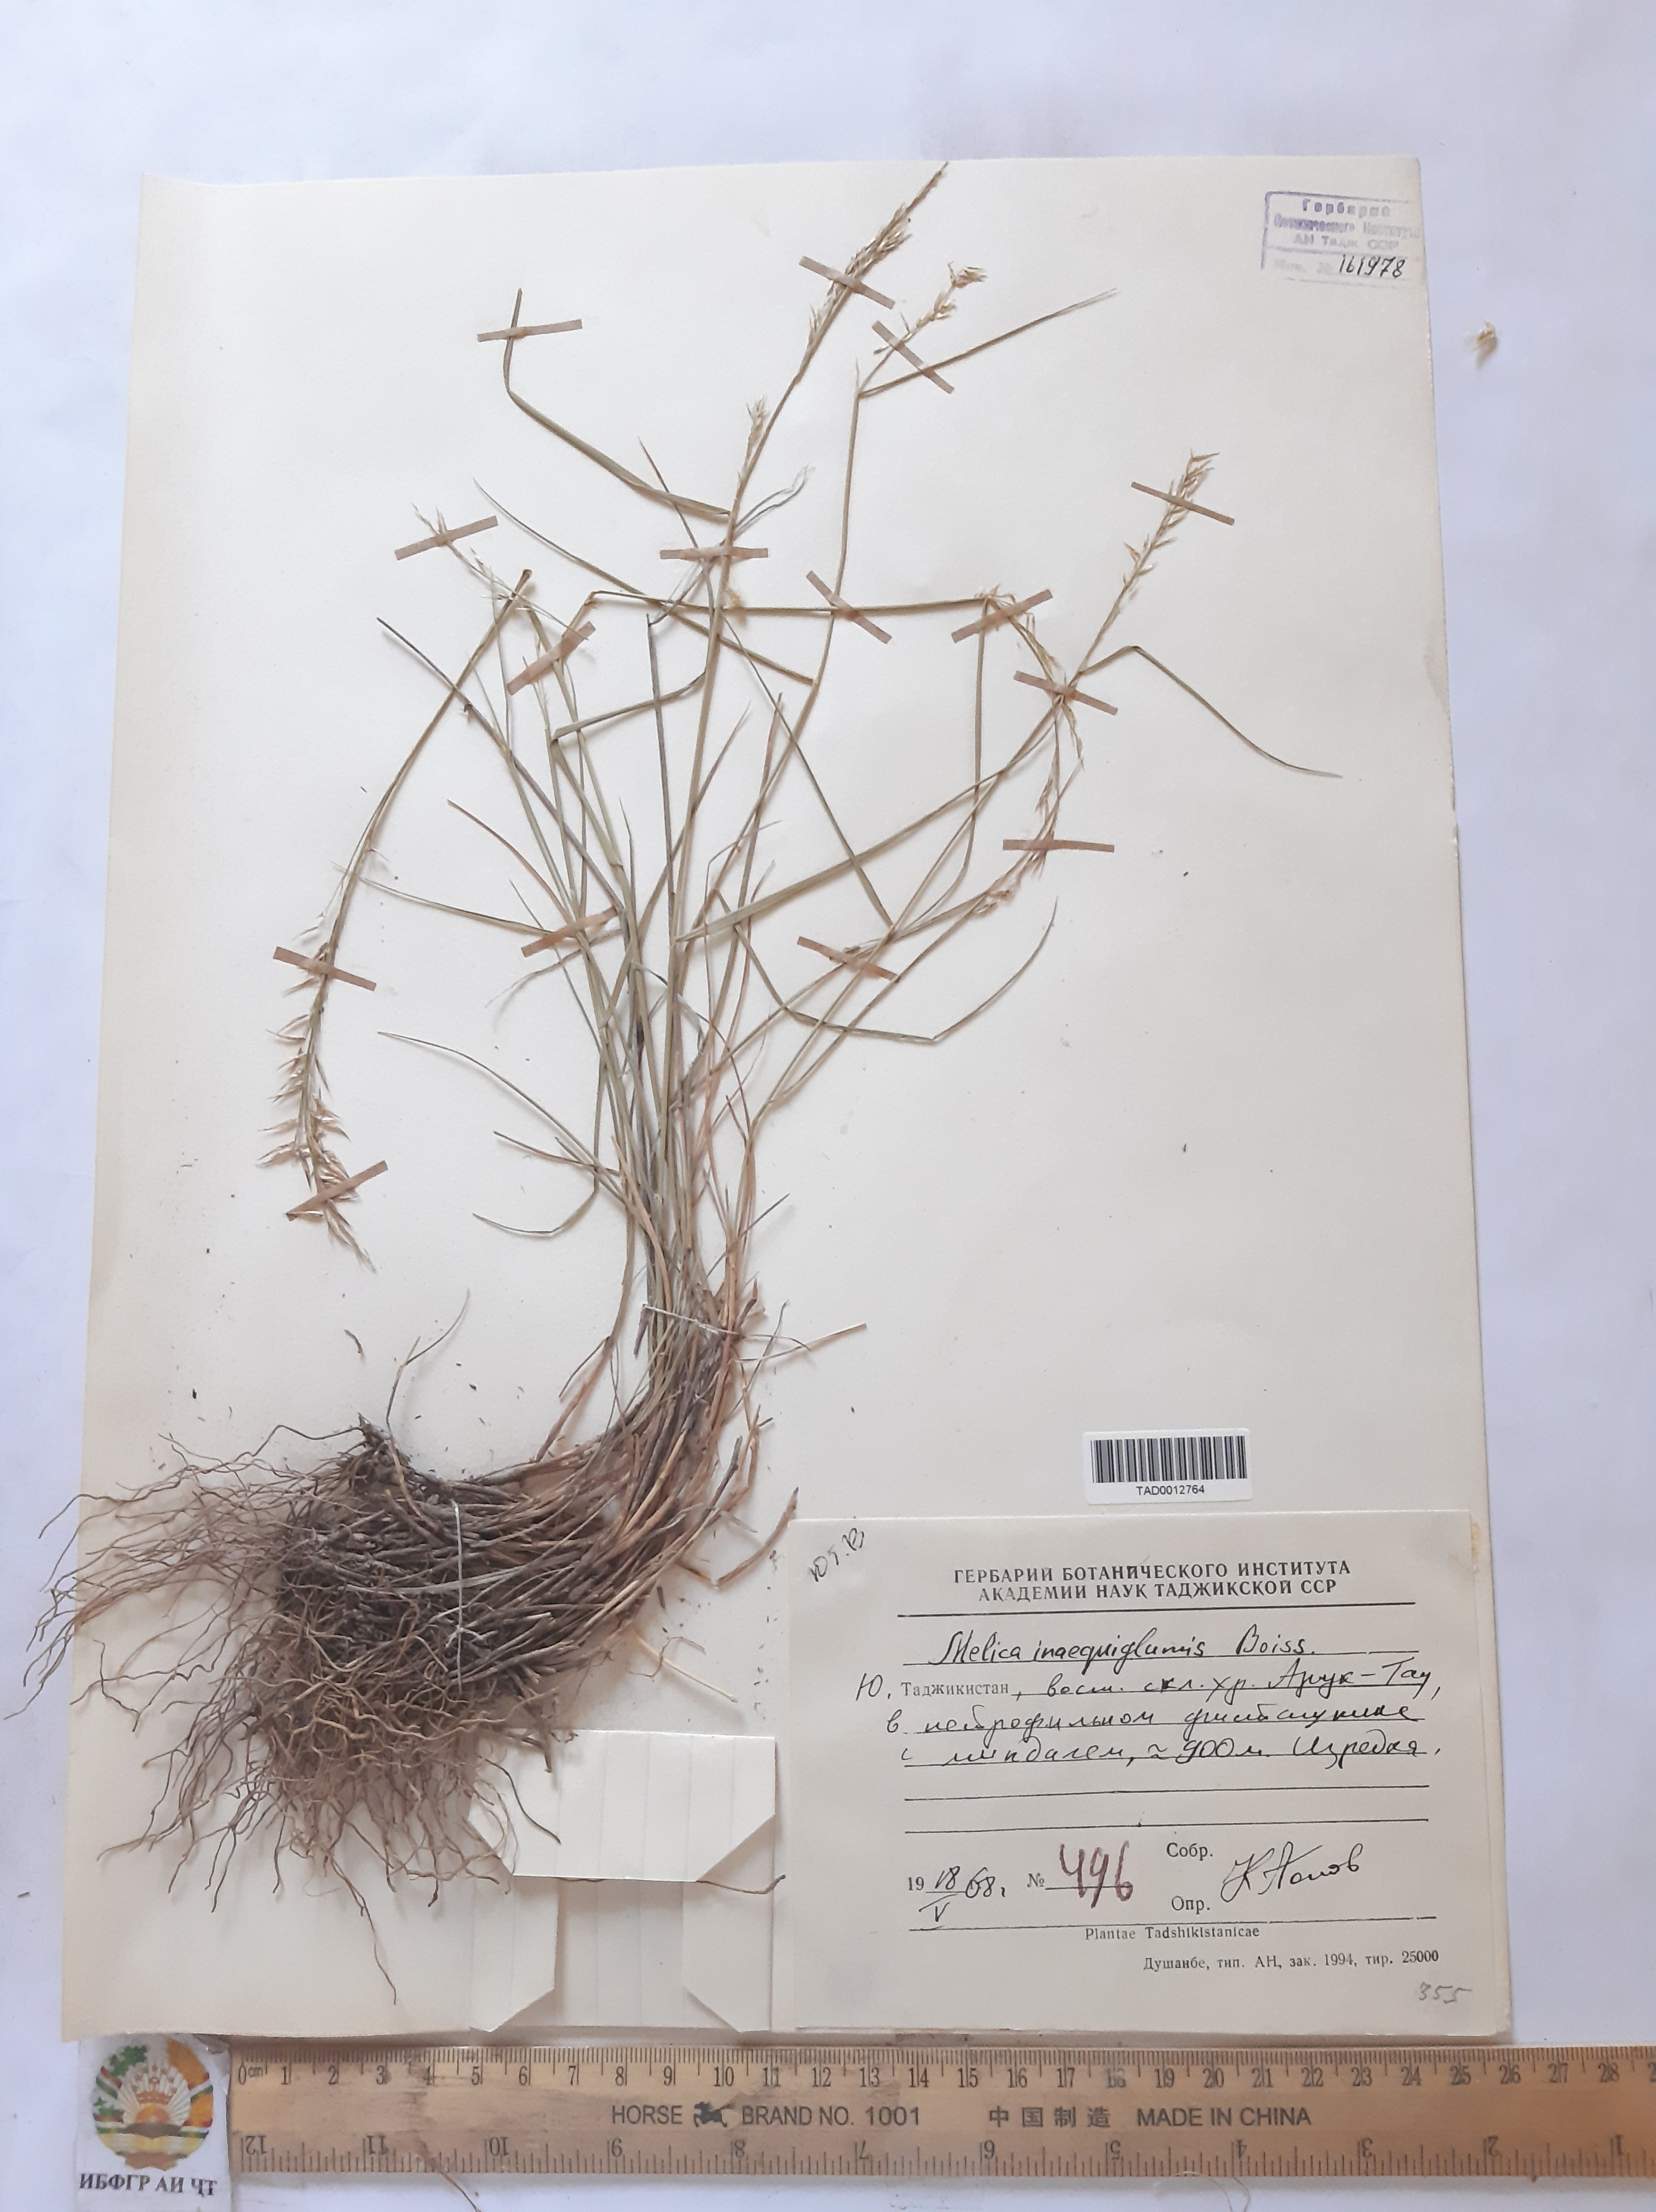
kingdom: Plantae
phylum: Tracheophyta
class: Liliopsida
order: Poales
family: Poaceae
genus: Melica
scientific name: Melica persica
